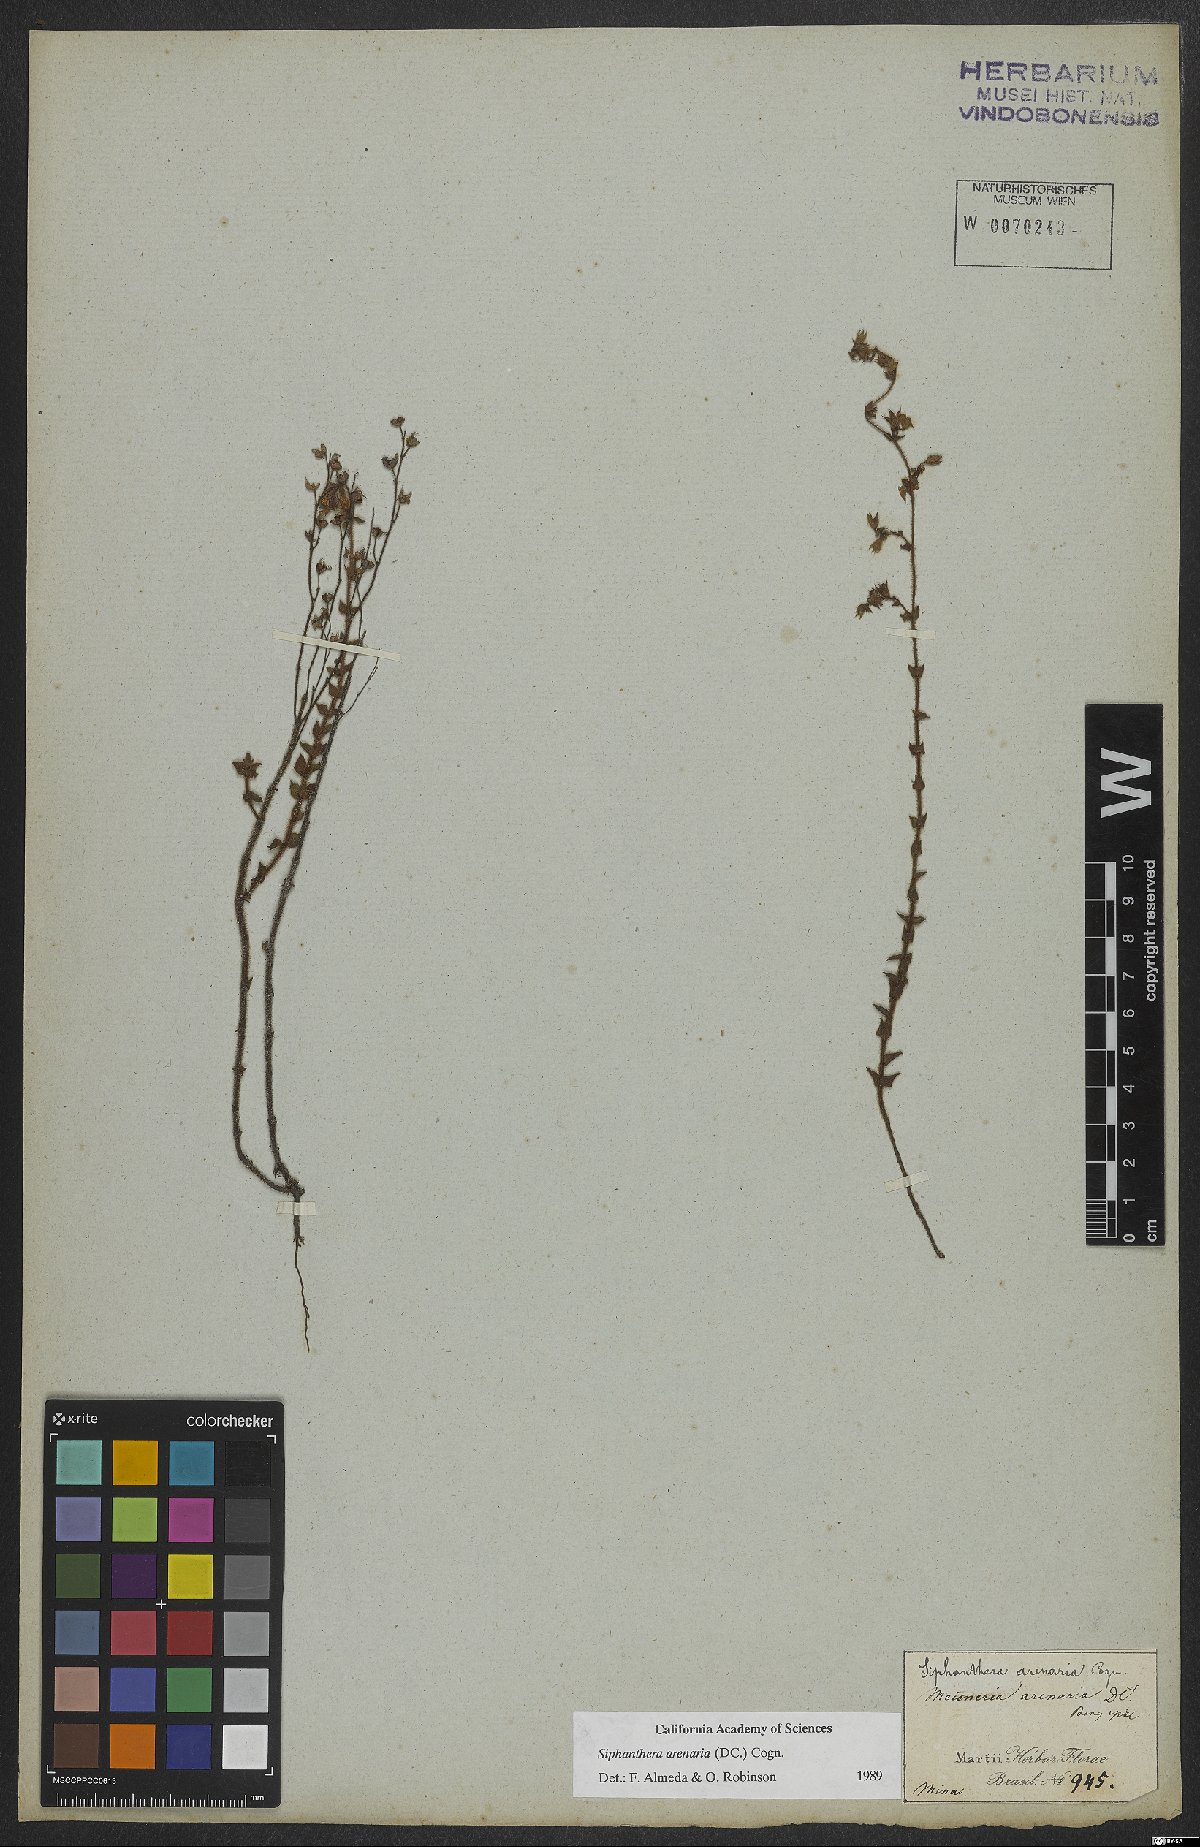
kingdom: Plantae
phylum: Tracheophyta
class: Magnoliopsida
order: Myrtales
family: Melastomataceae
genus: Siphanthera
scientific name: Siphanthera arenaria
